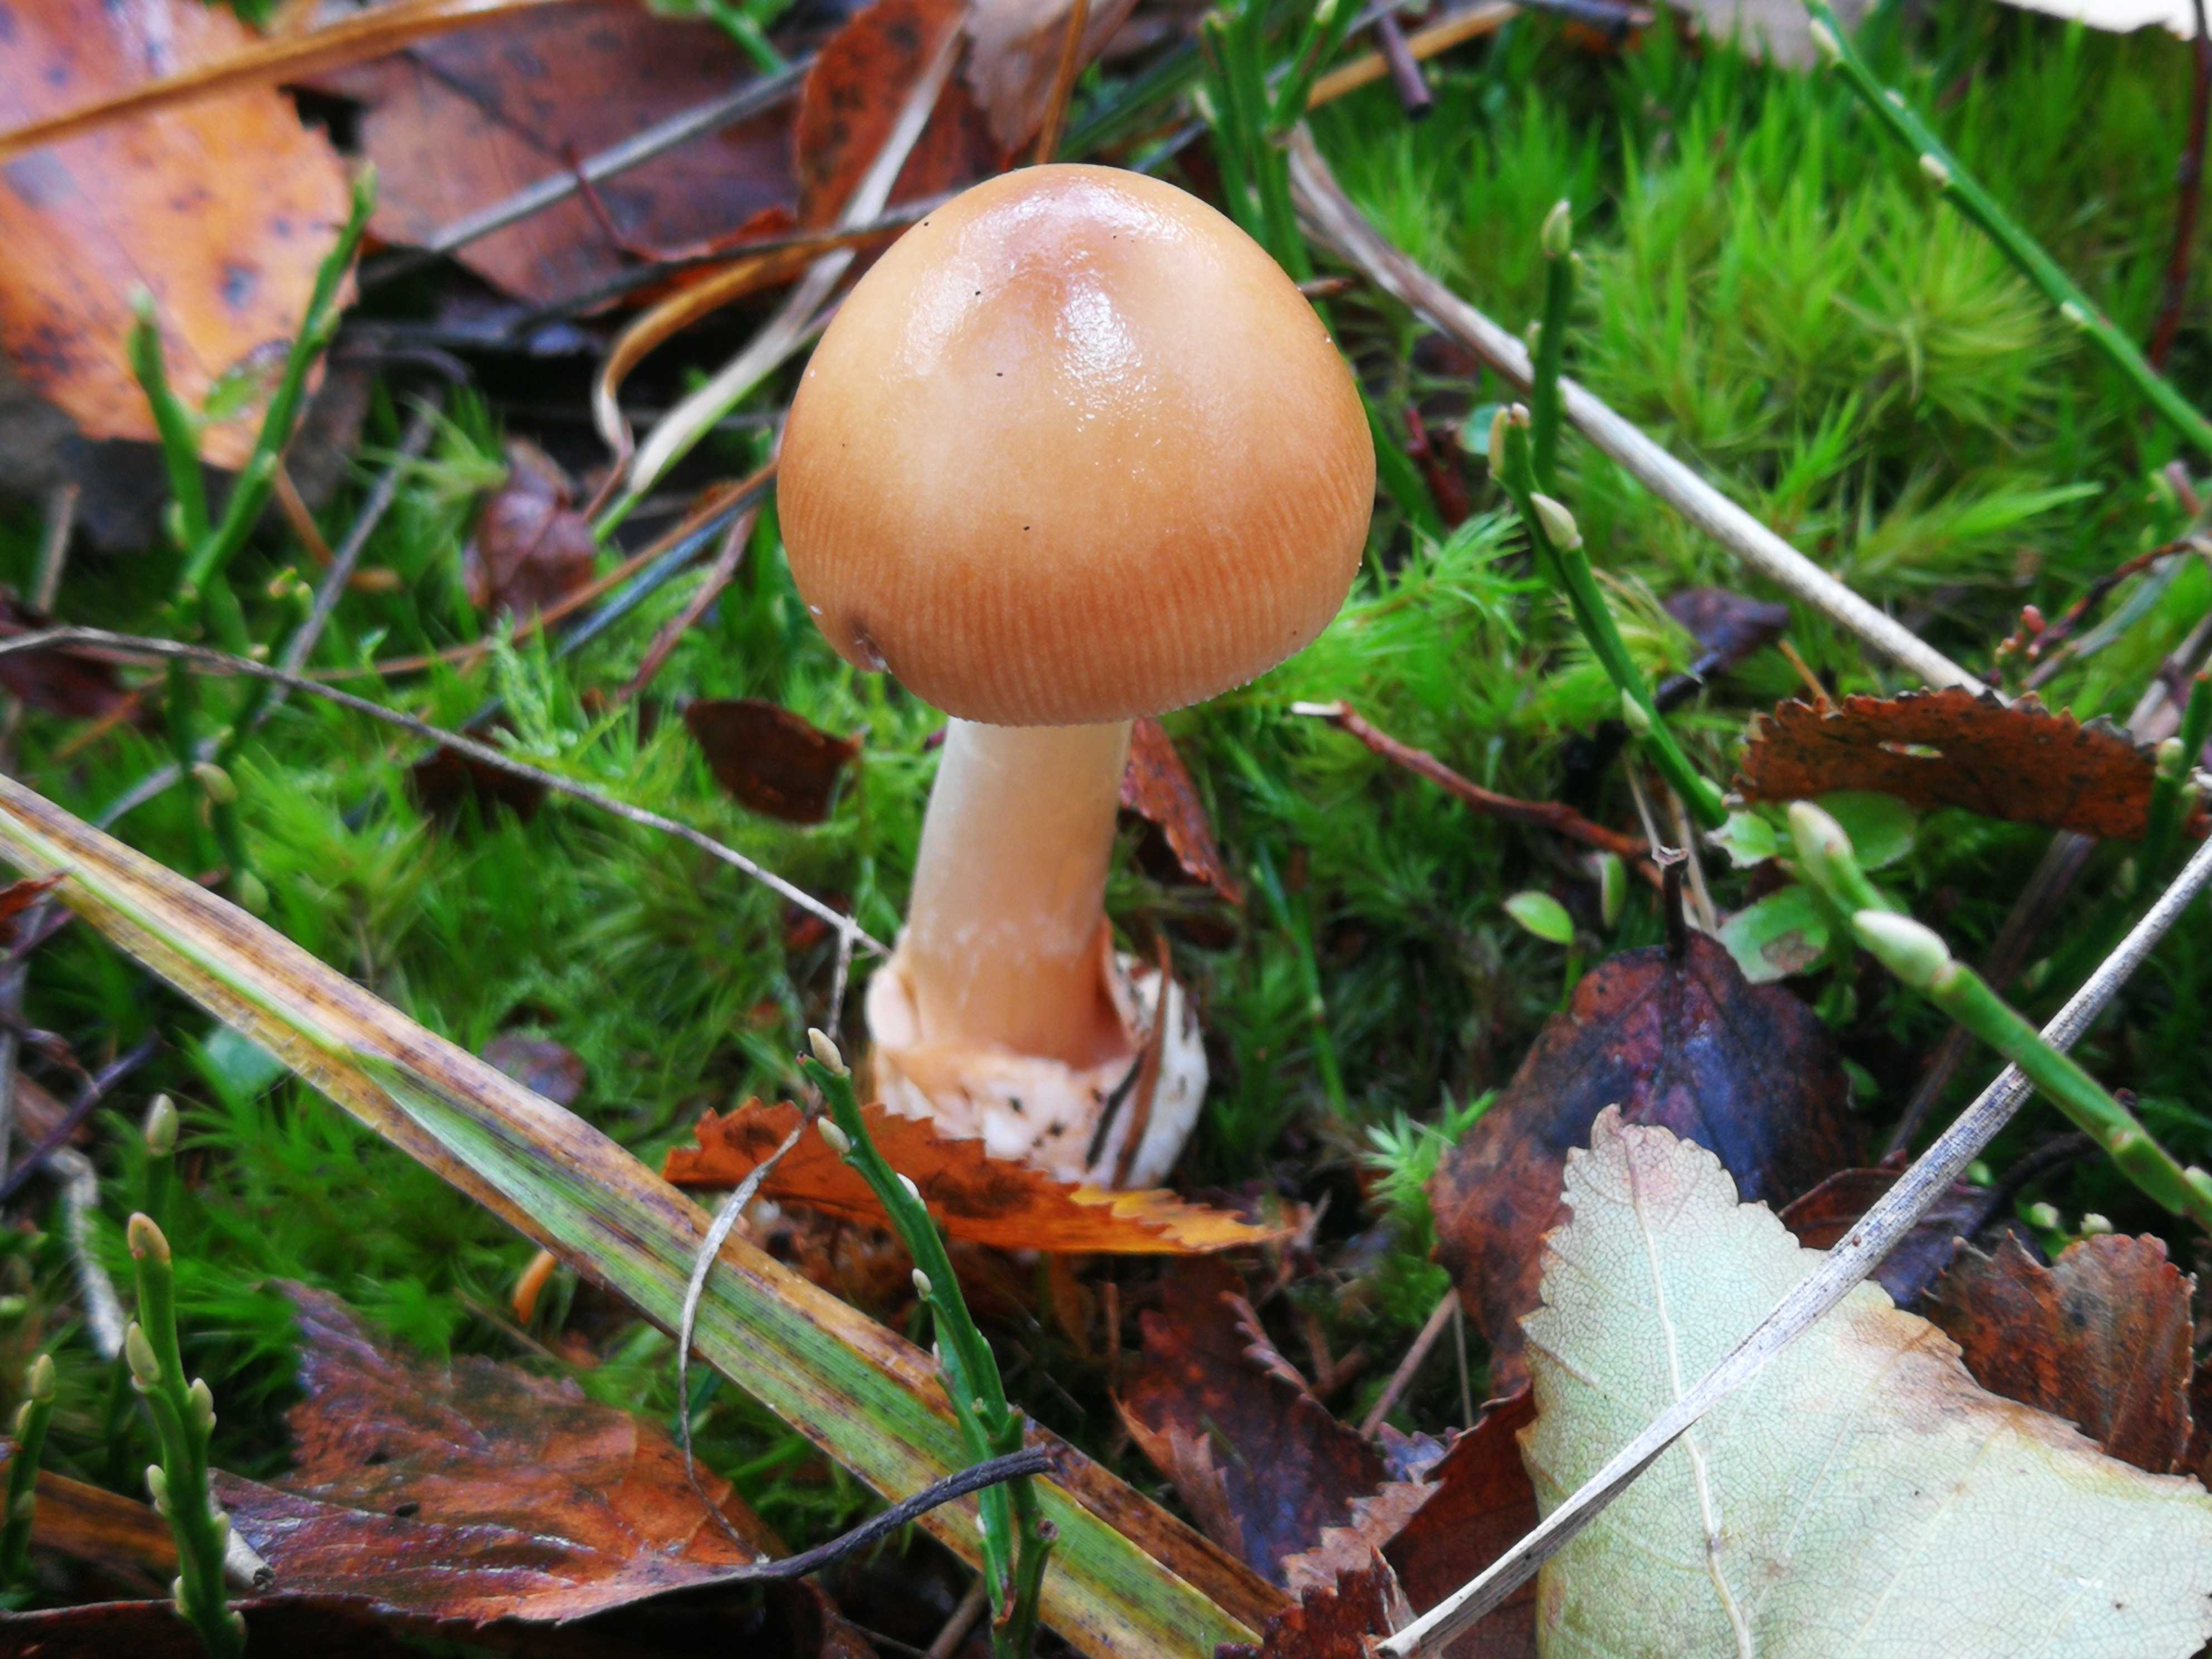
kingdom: Fungi
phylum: Basidiomycota
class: Agaricomycetes
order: Agaricales
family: Amanitaceae
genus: Amanita
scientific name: Amanita fulva
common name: brun kam-fluesvamp
